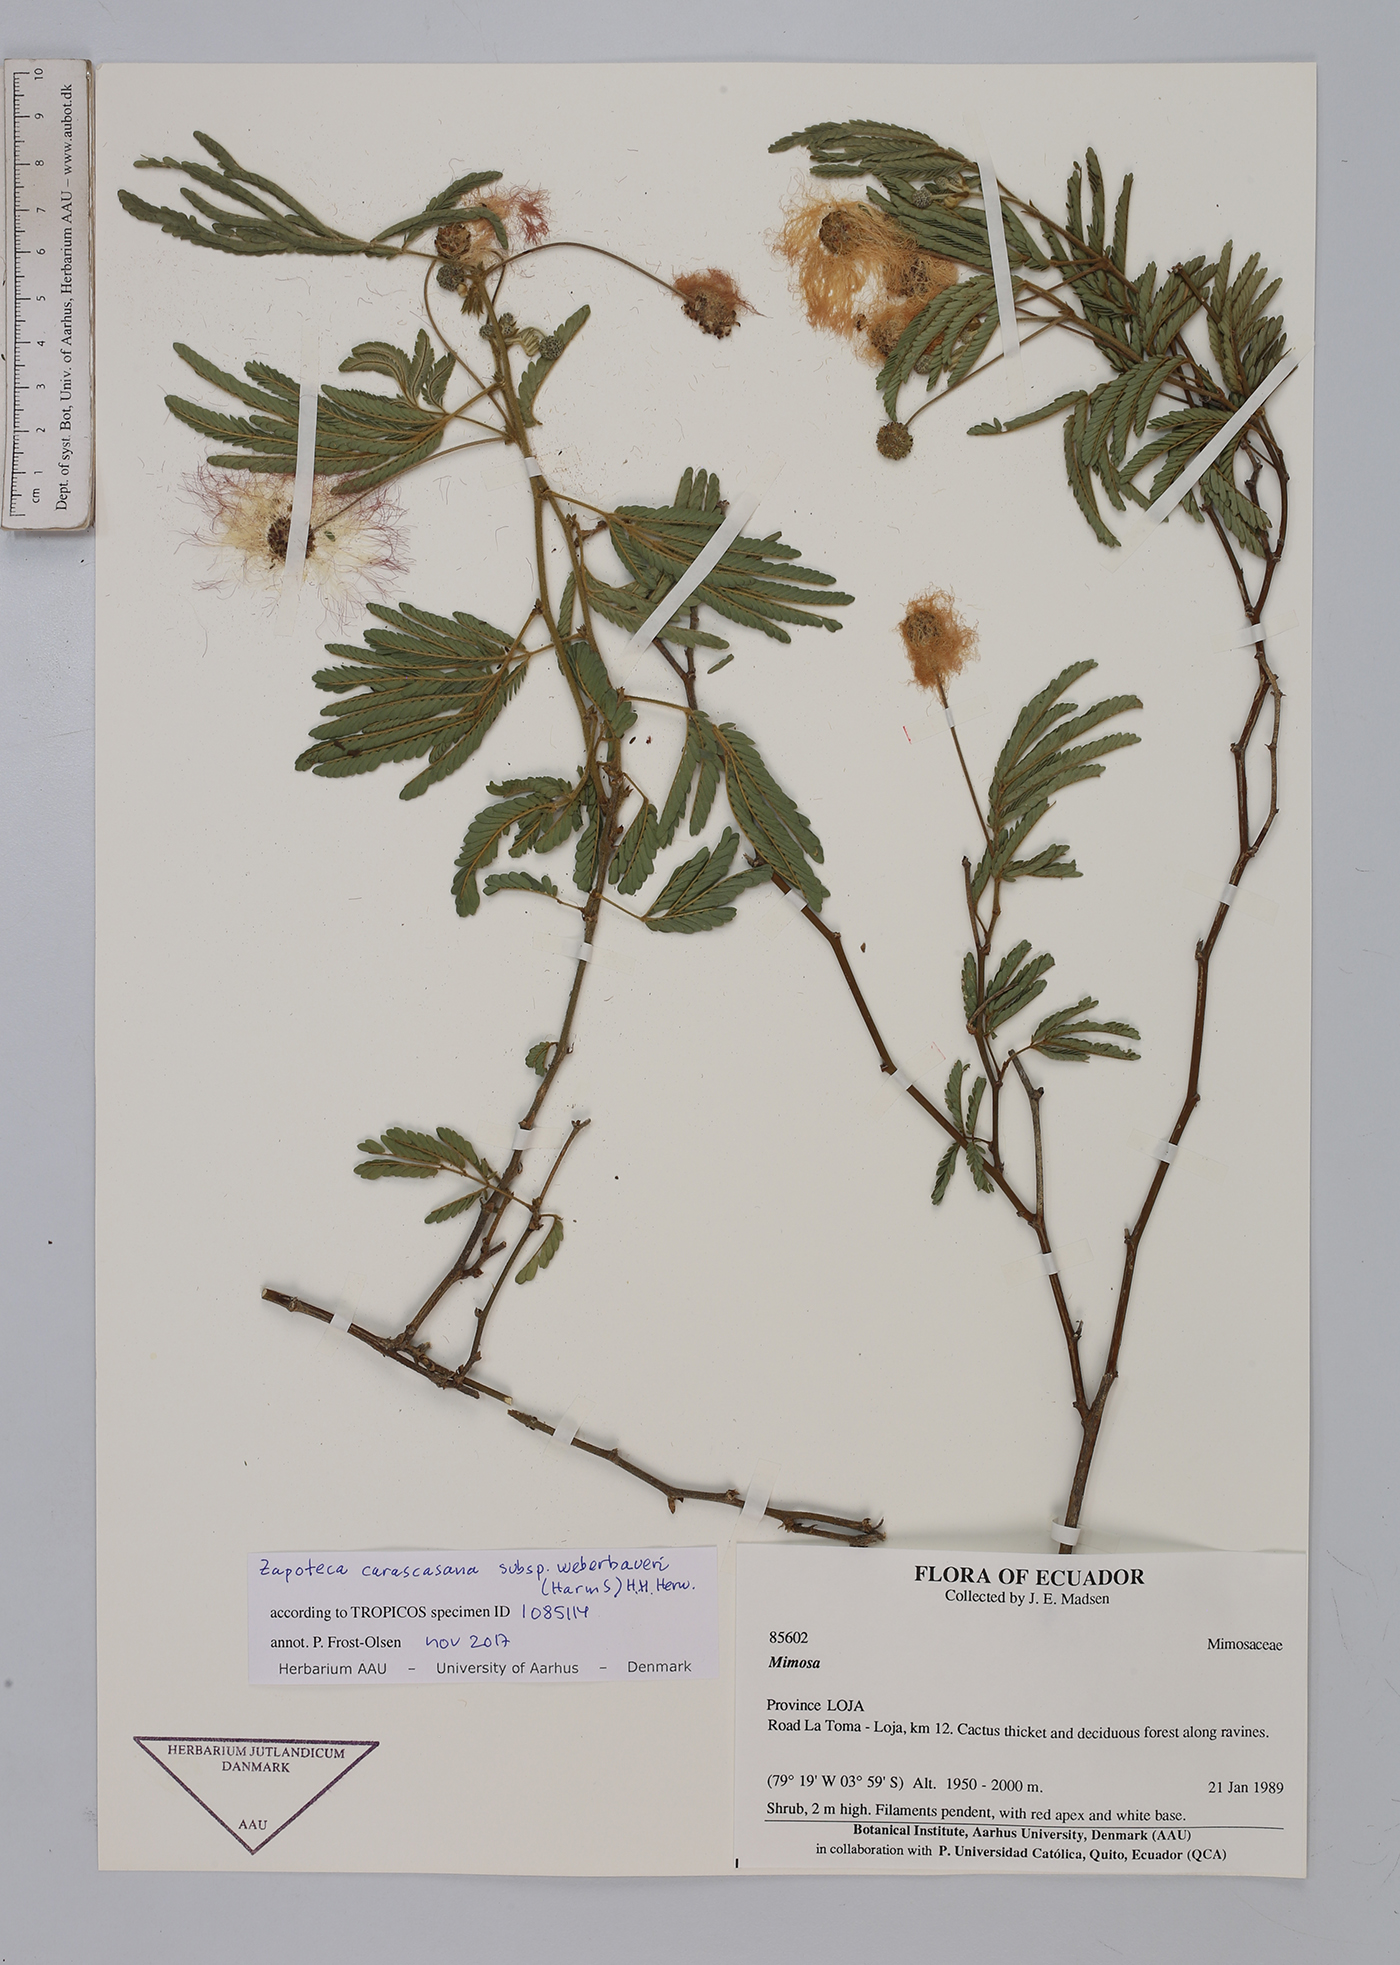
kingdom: Plantae
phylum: Tracheophyta
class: Magnoliopsida
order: Fabales
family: Fabaceae
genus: Zapoteca
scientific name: Zapoteca caracasana
